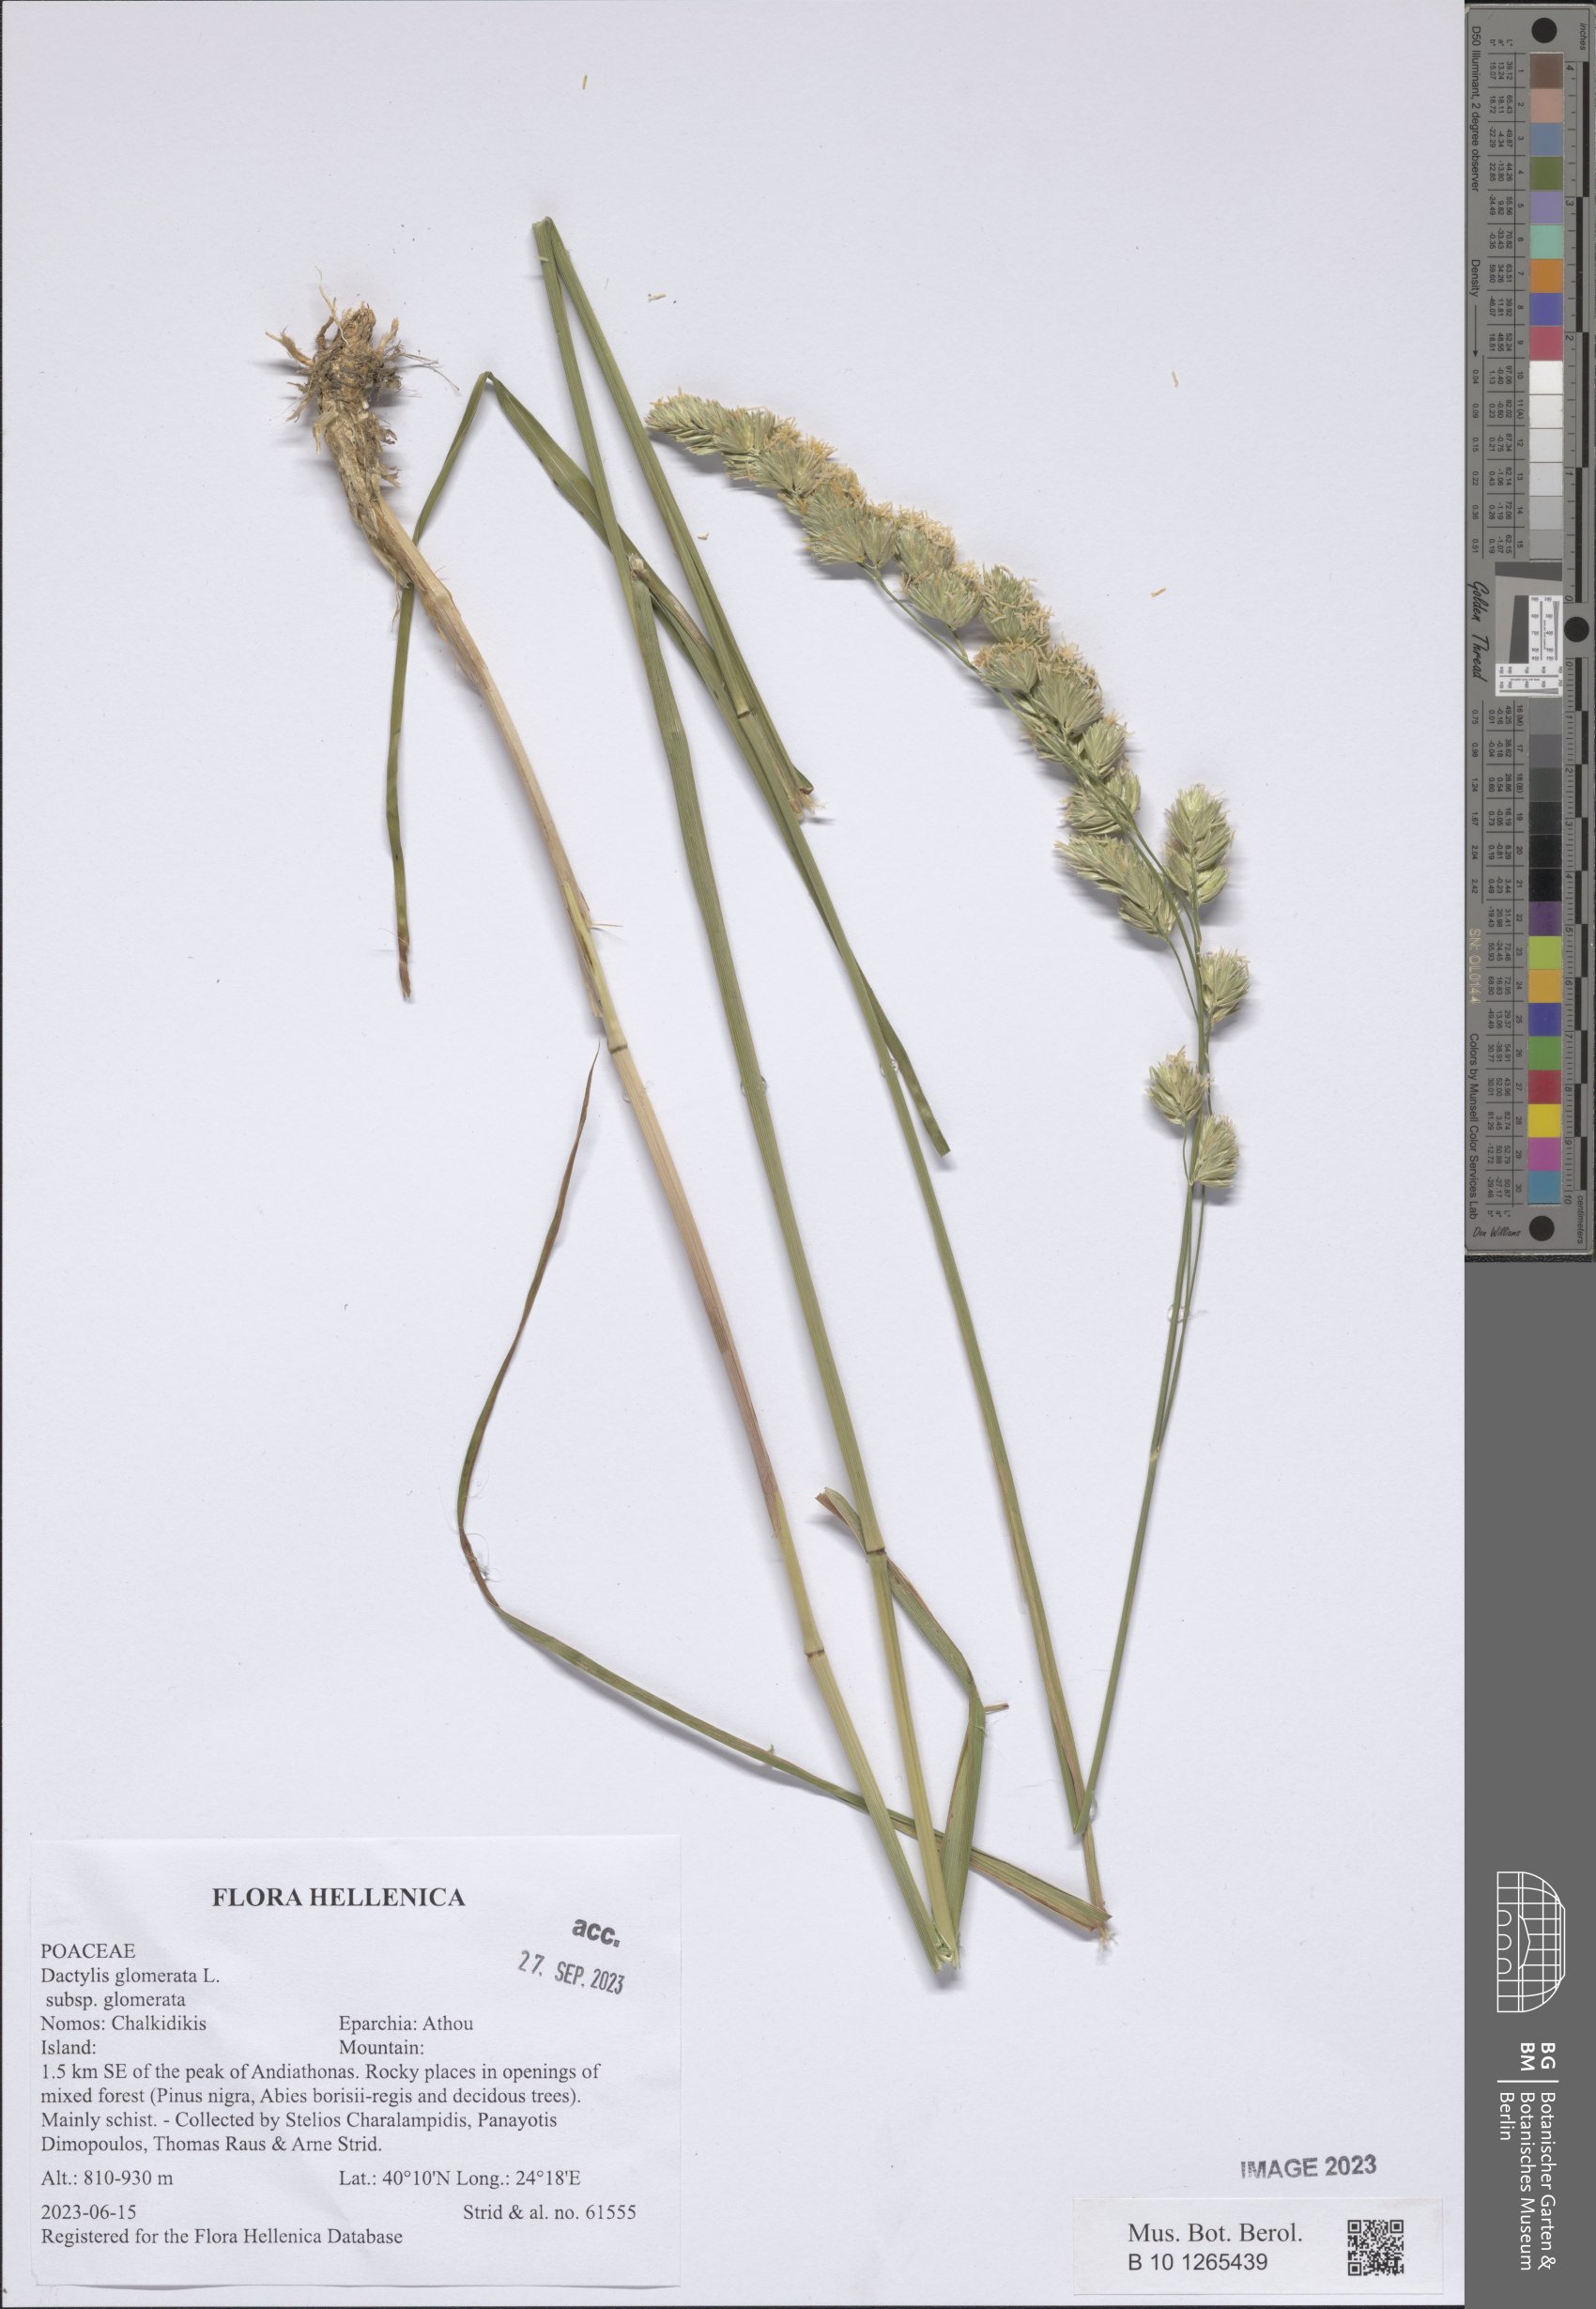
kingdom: Plantae
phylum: Tracheophyta
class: Liliopsida
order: Poales
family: Poaceae
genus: Dactylis
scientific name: Dactylis glomerata
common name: Orchardgrass
